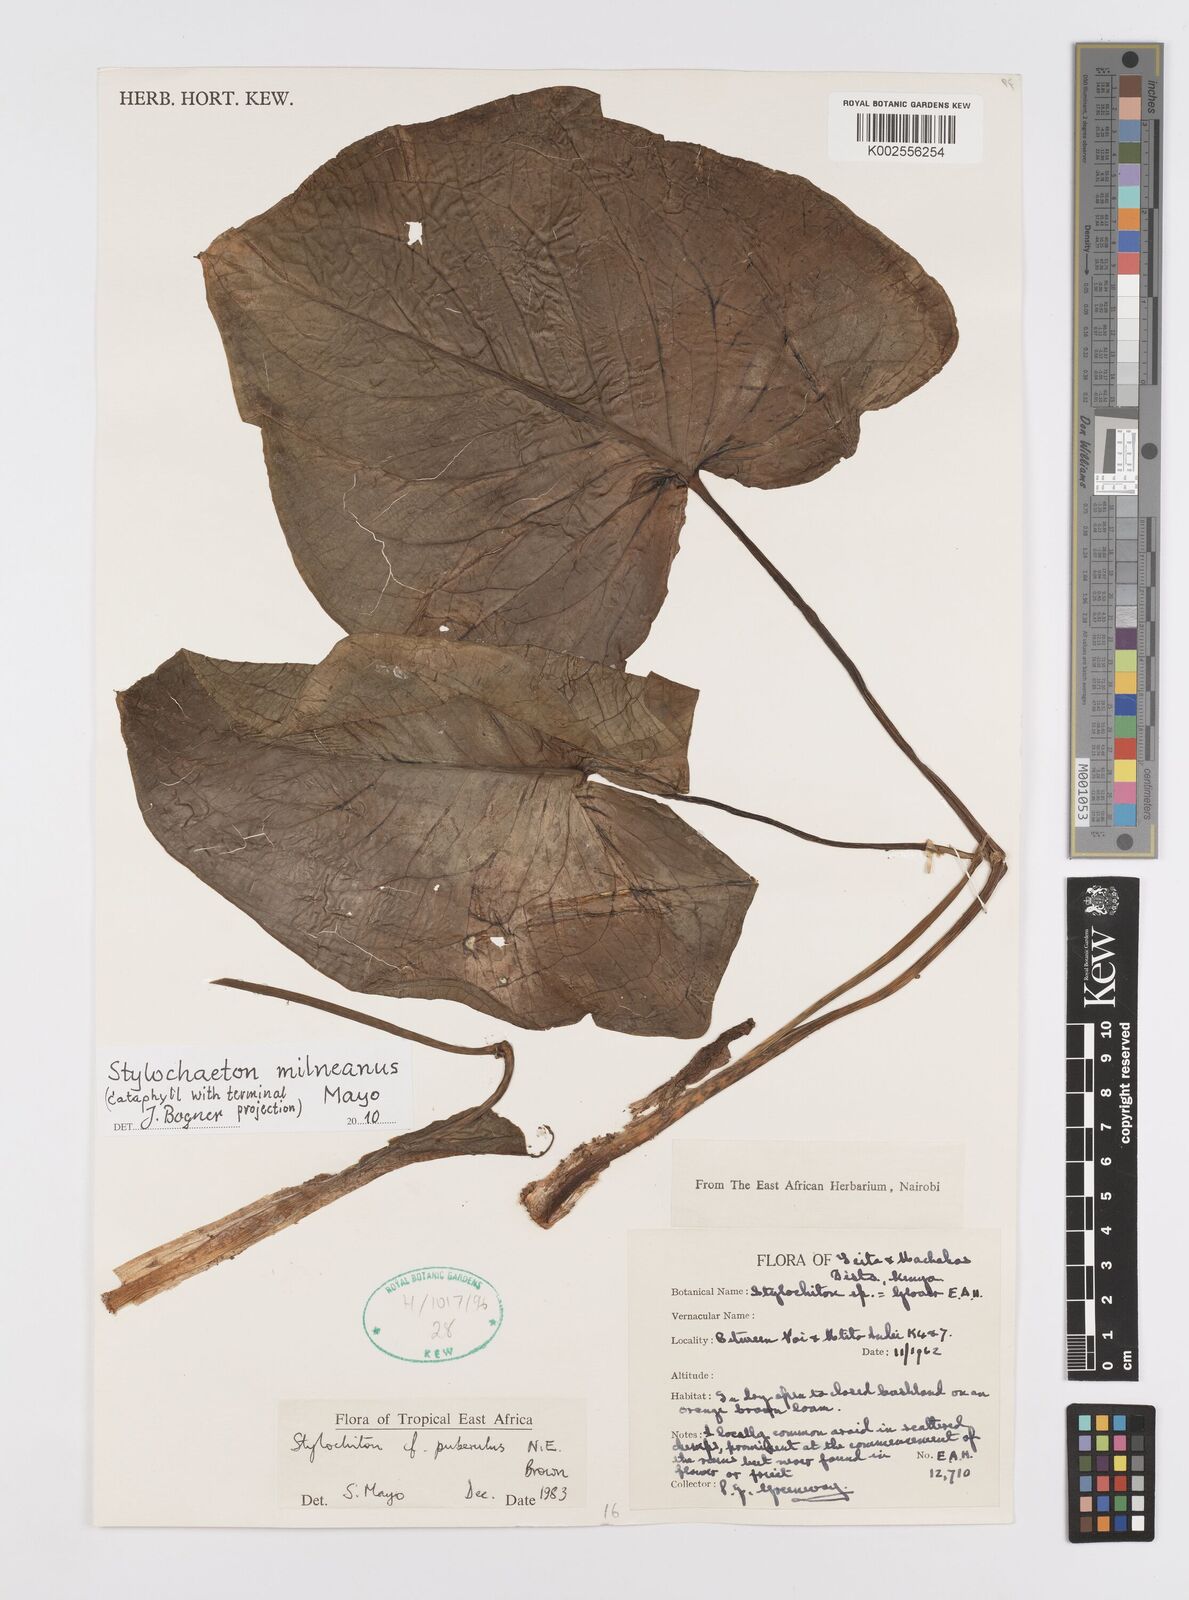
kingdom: Plantae
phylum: Tracheophyta
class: Liliopsida
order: Alismatales
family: Araceae
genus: Stylochaeton
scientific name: Stylochaeton milneanum
